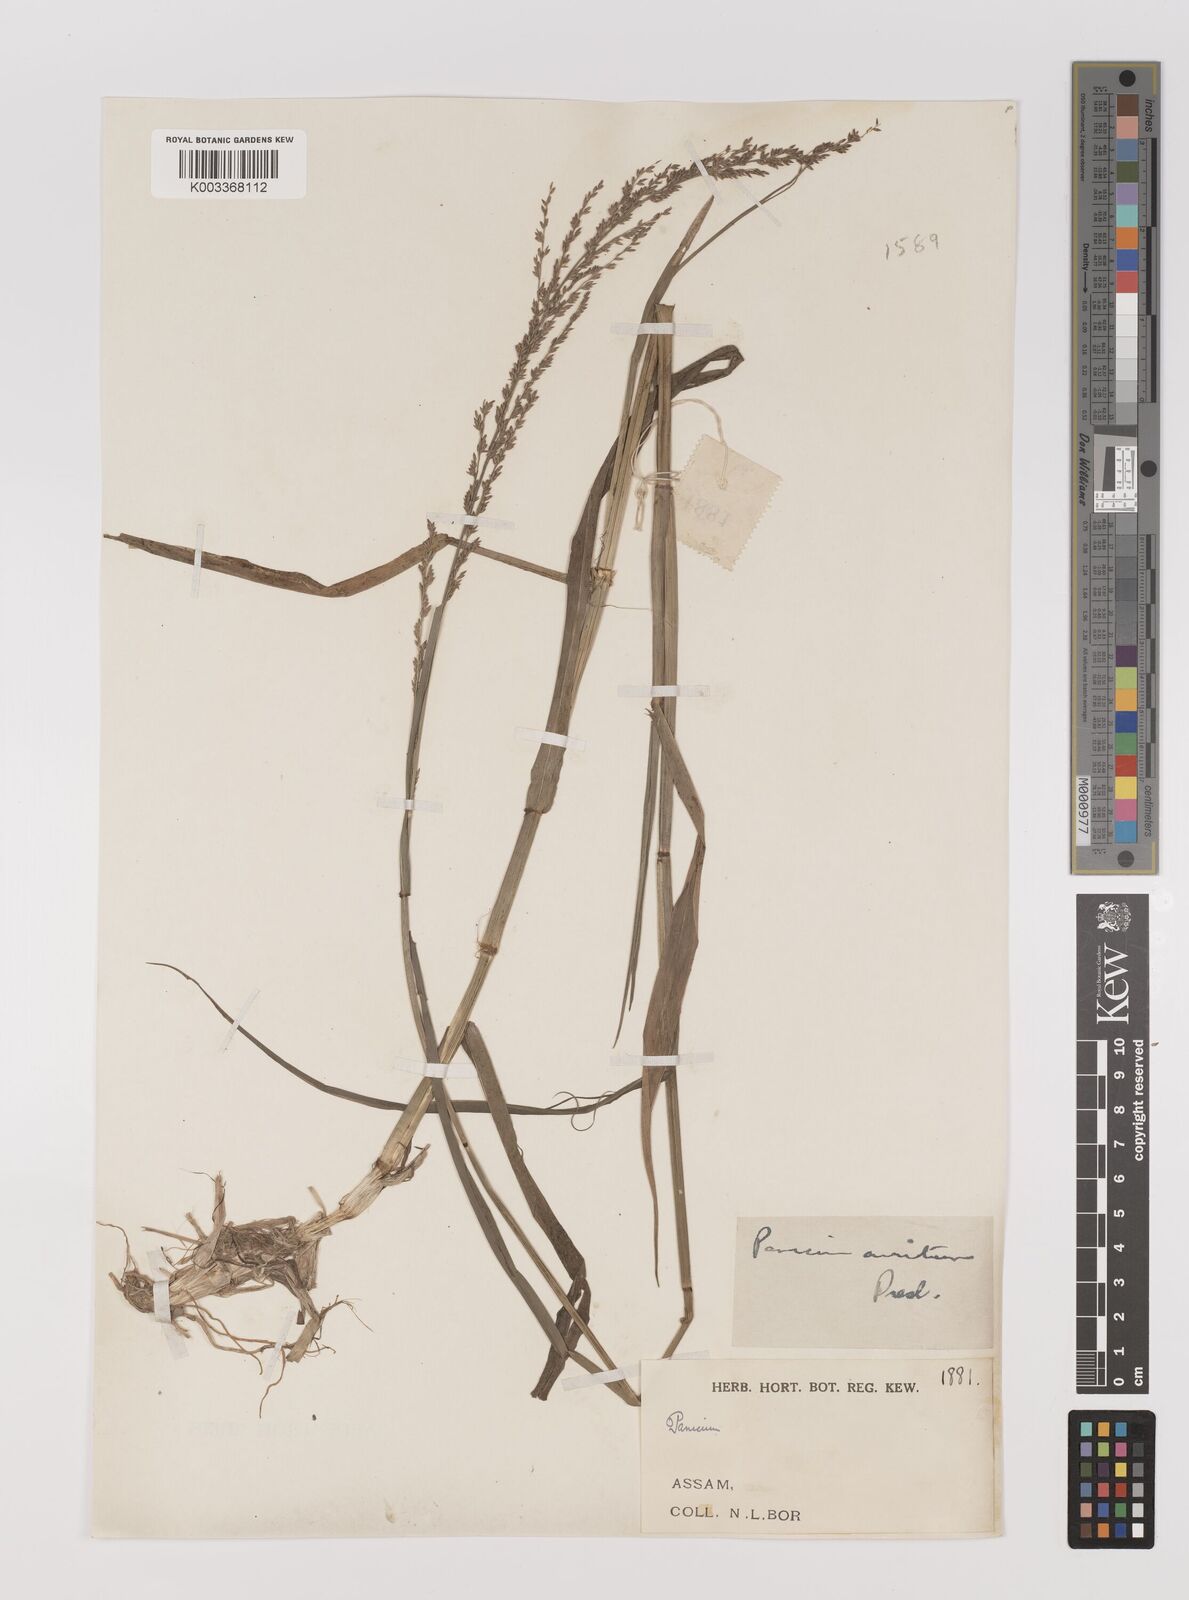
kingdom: Plantae
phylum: Tracheophyta
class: Liliopsida
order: Poales
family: Poaceae
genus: Hymenachne
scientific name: Hymenachne aurita
